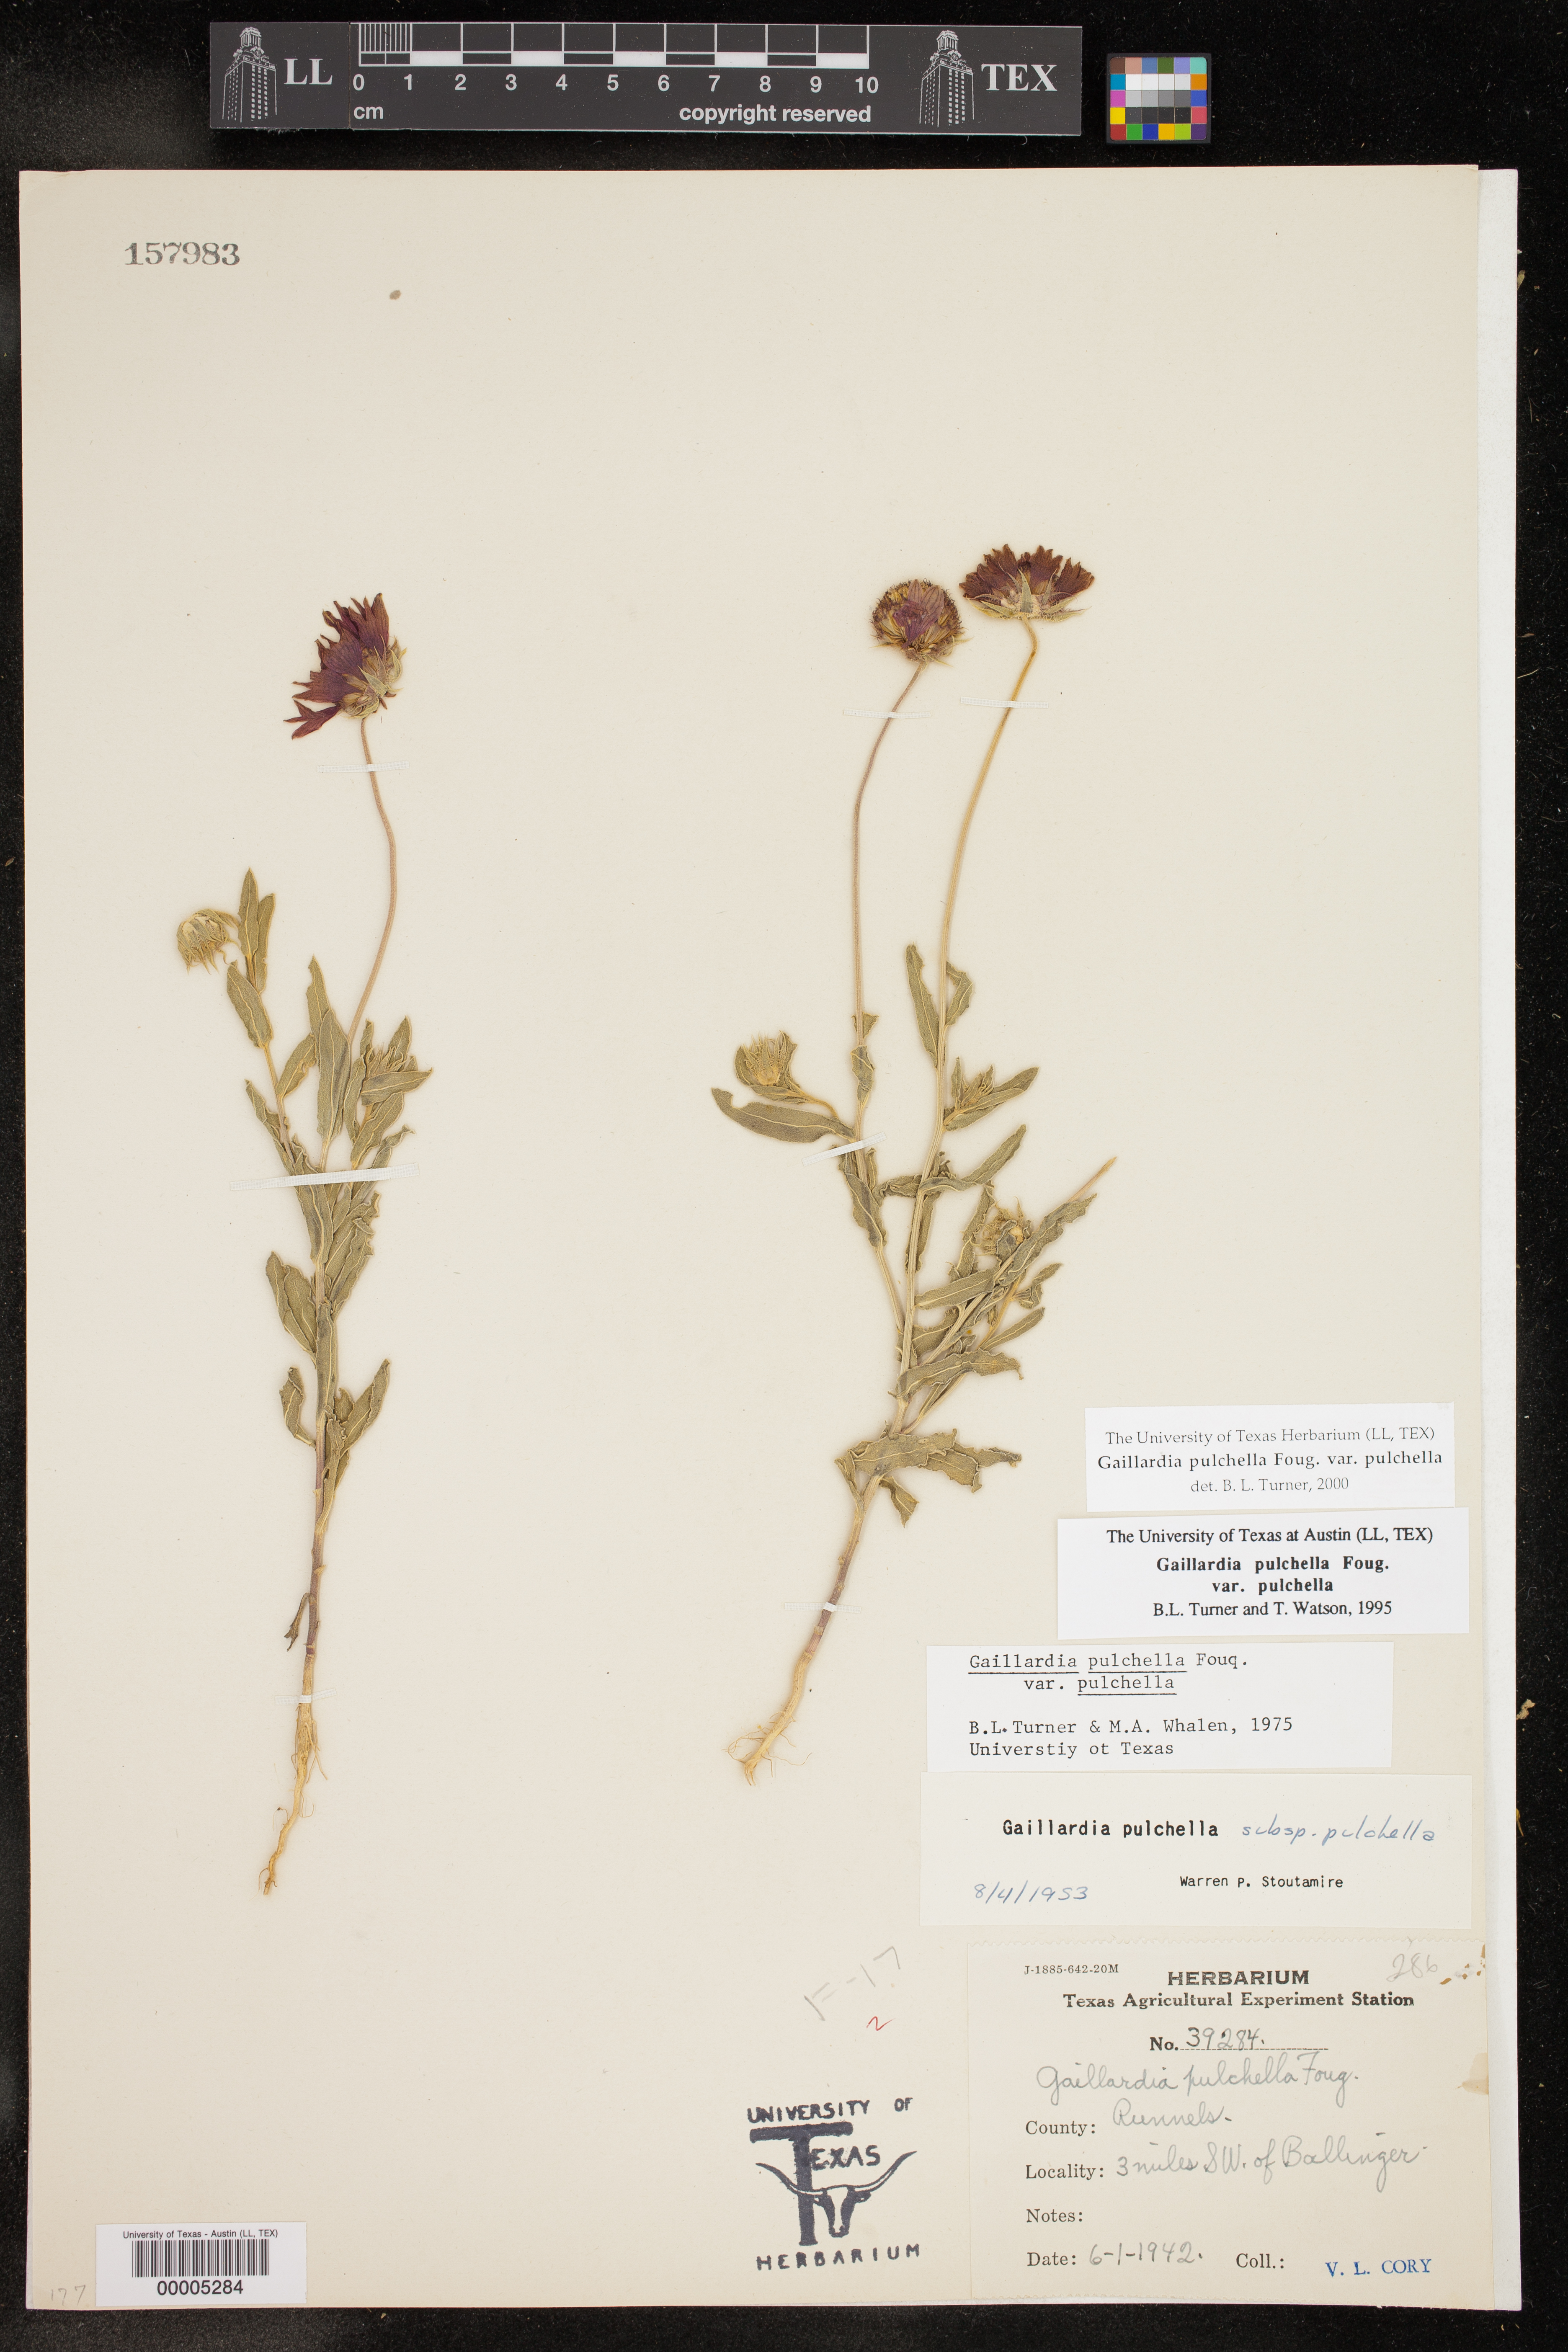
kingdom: Plantae
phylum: Tracheophyta
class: Magnoliopsida
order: Asterales
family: Asteraceae
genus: Gaillardia
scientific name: Gaillardia pulchella
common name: Firewheel
